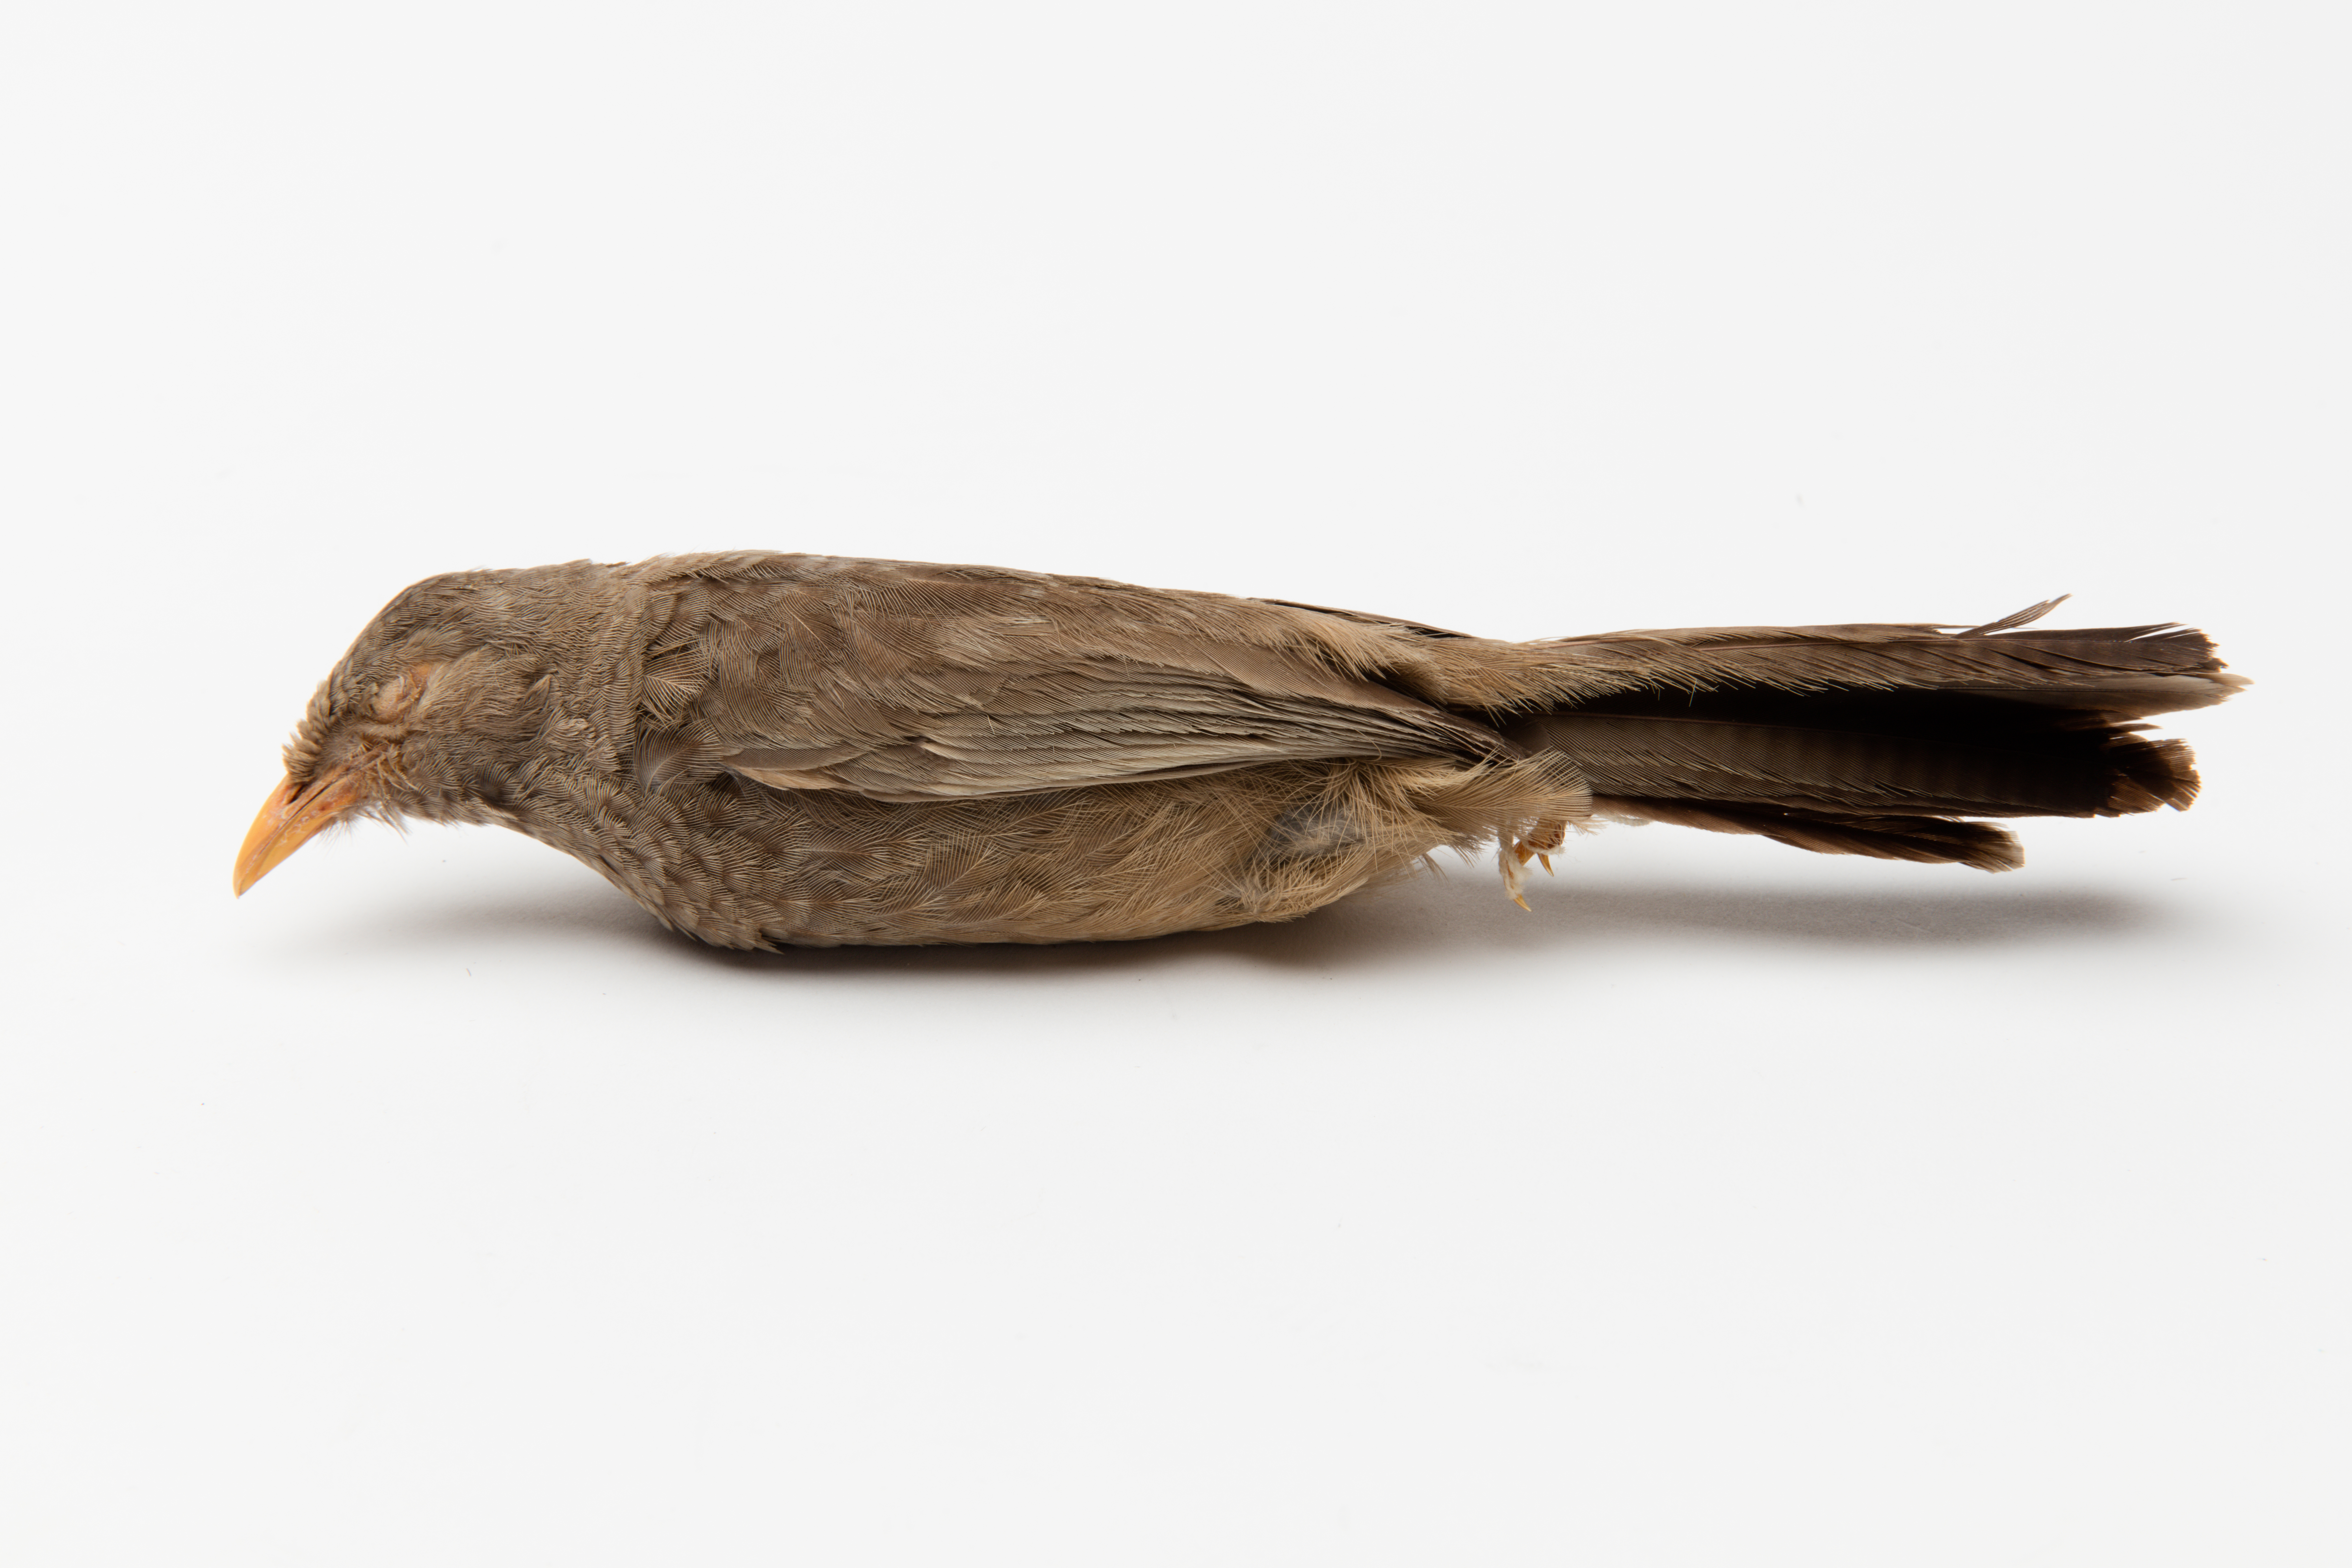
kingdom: Animalia
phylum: Chordata
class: Aves
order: Passeriformes
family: Leiothrichidae
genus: Turdoides
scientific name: Turdoides striata
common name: Jungle babbler
